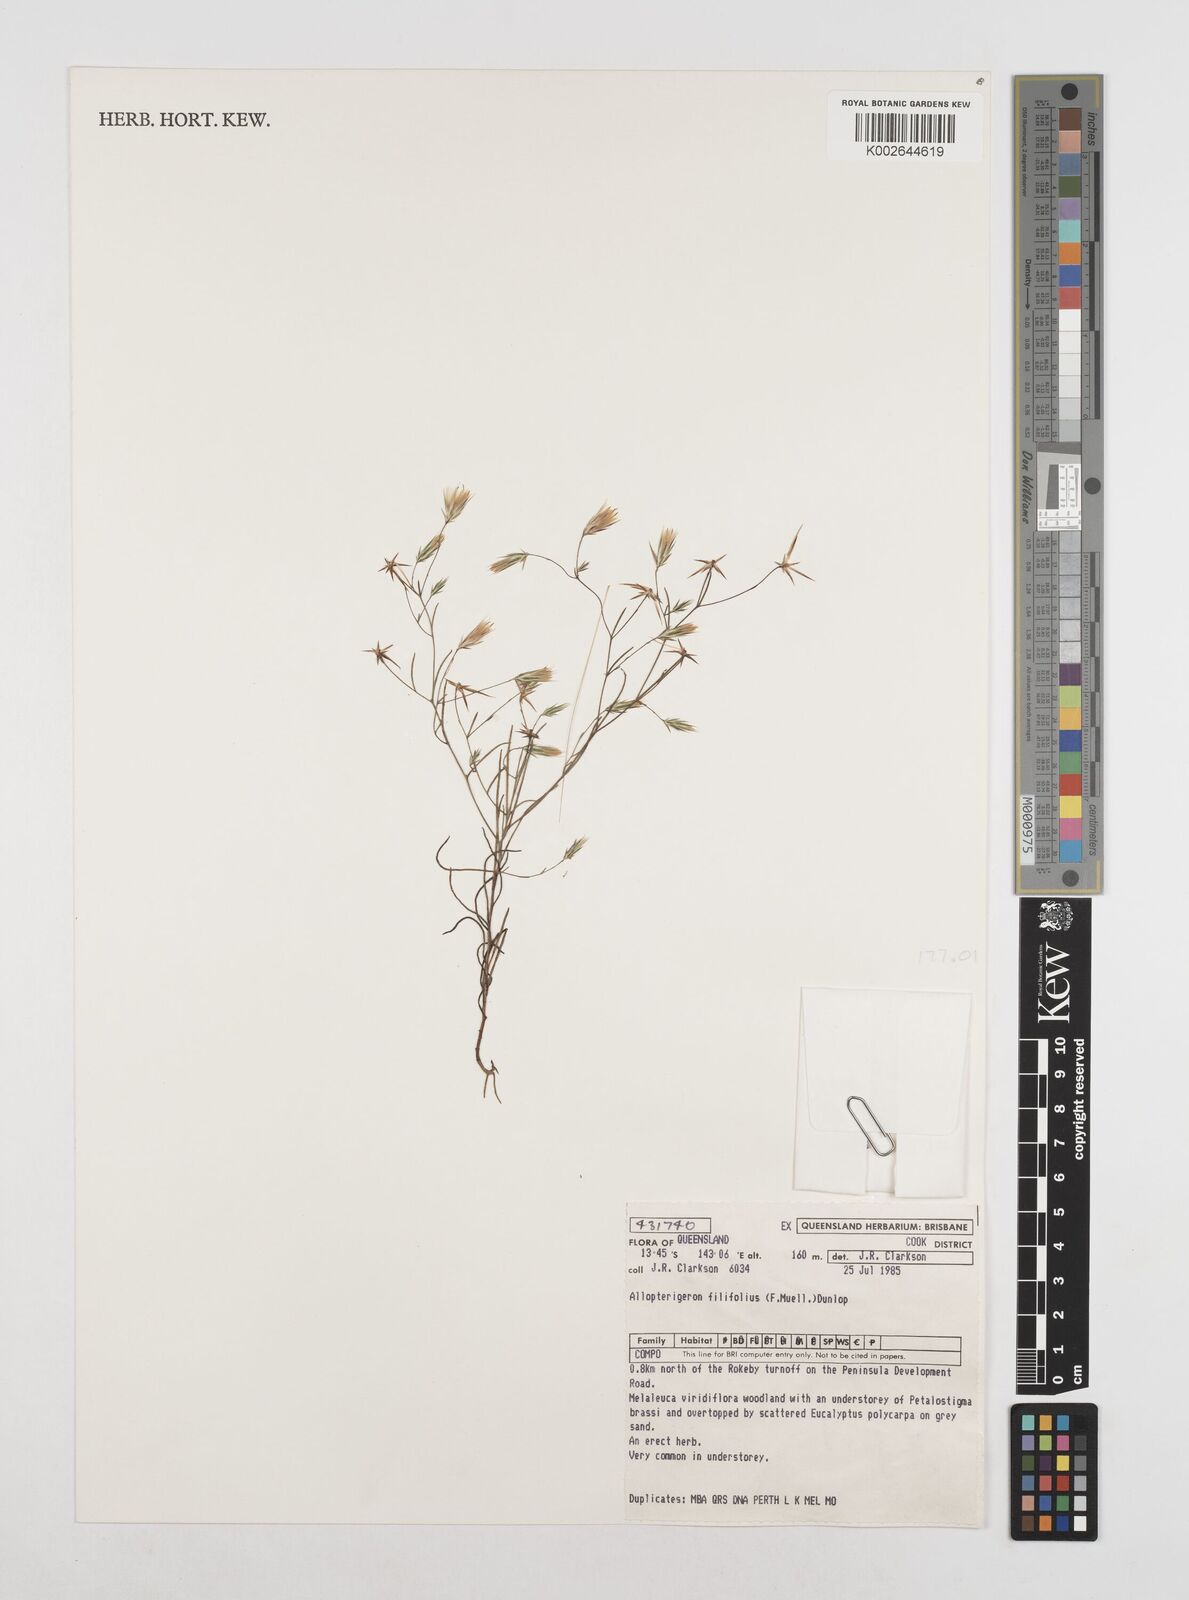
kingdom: Plantae
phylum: Tracheophyta
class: Magnoliopsida
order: Asterales
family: Asteraceae
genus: Allopterigeron
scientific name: Allopterigeron filifolius
